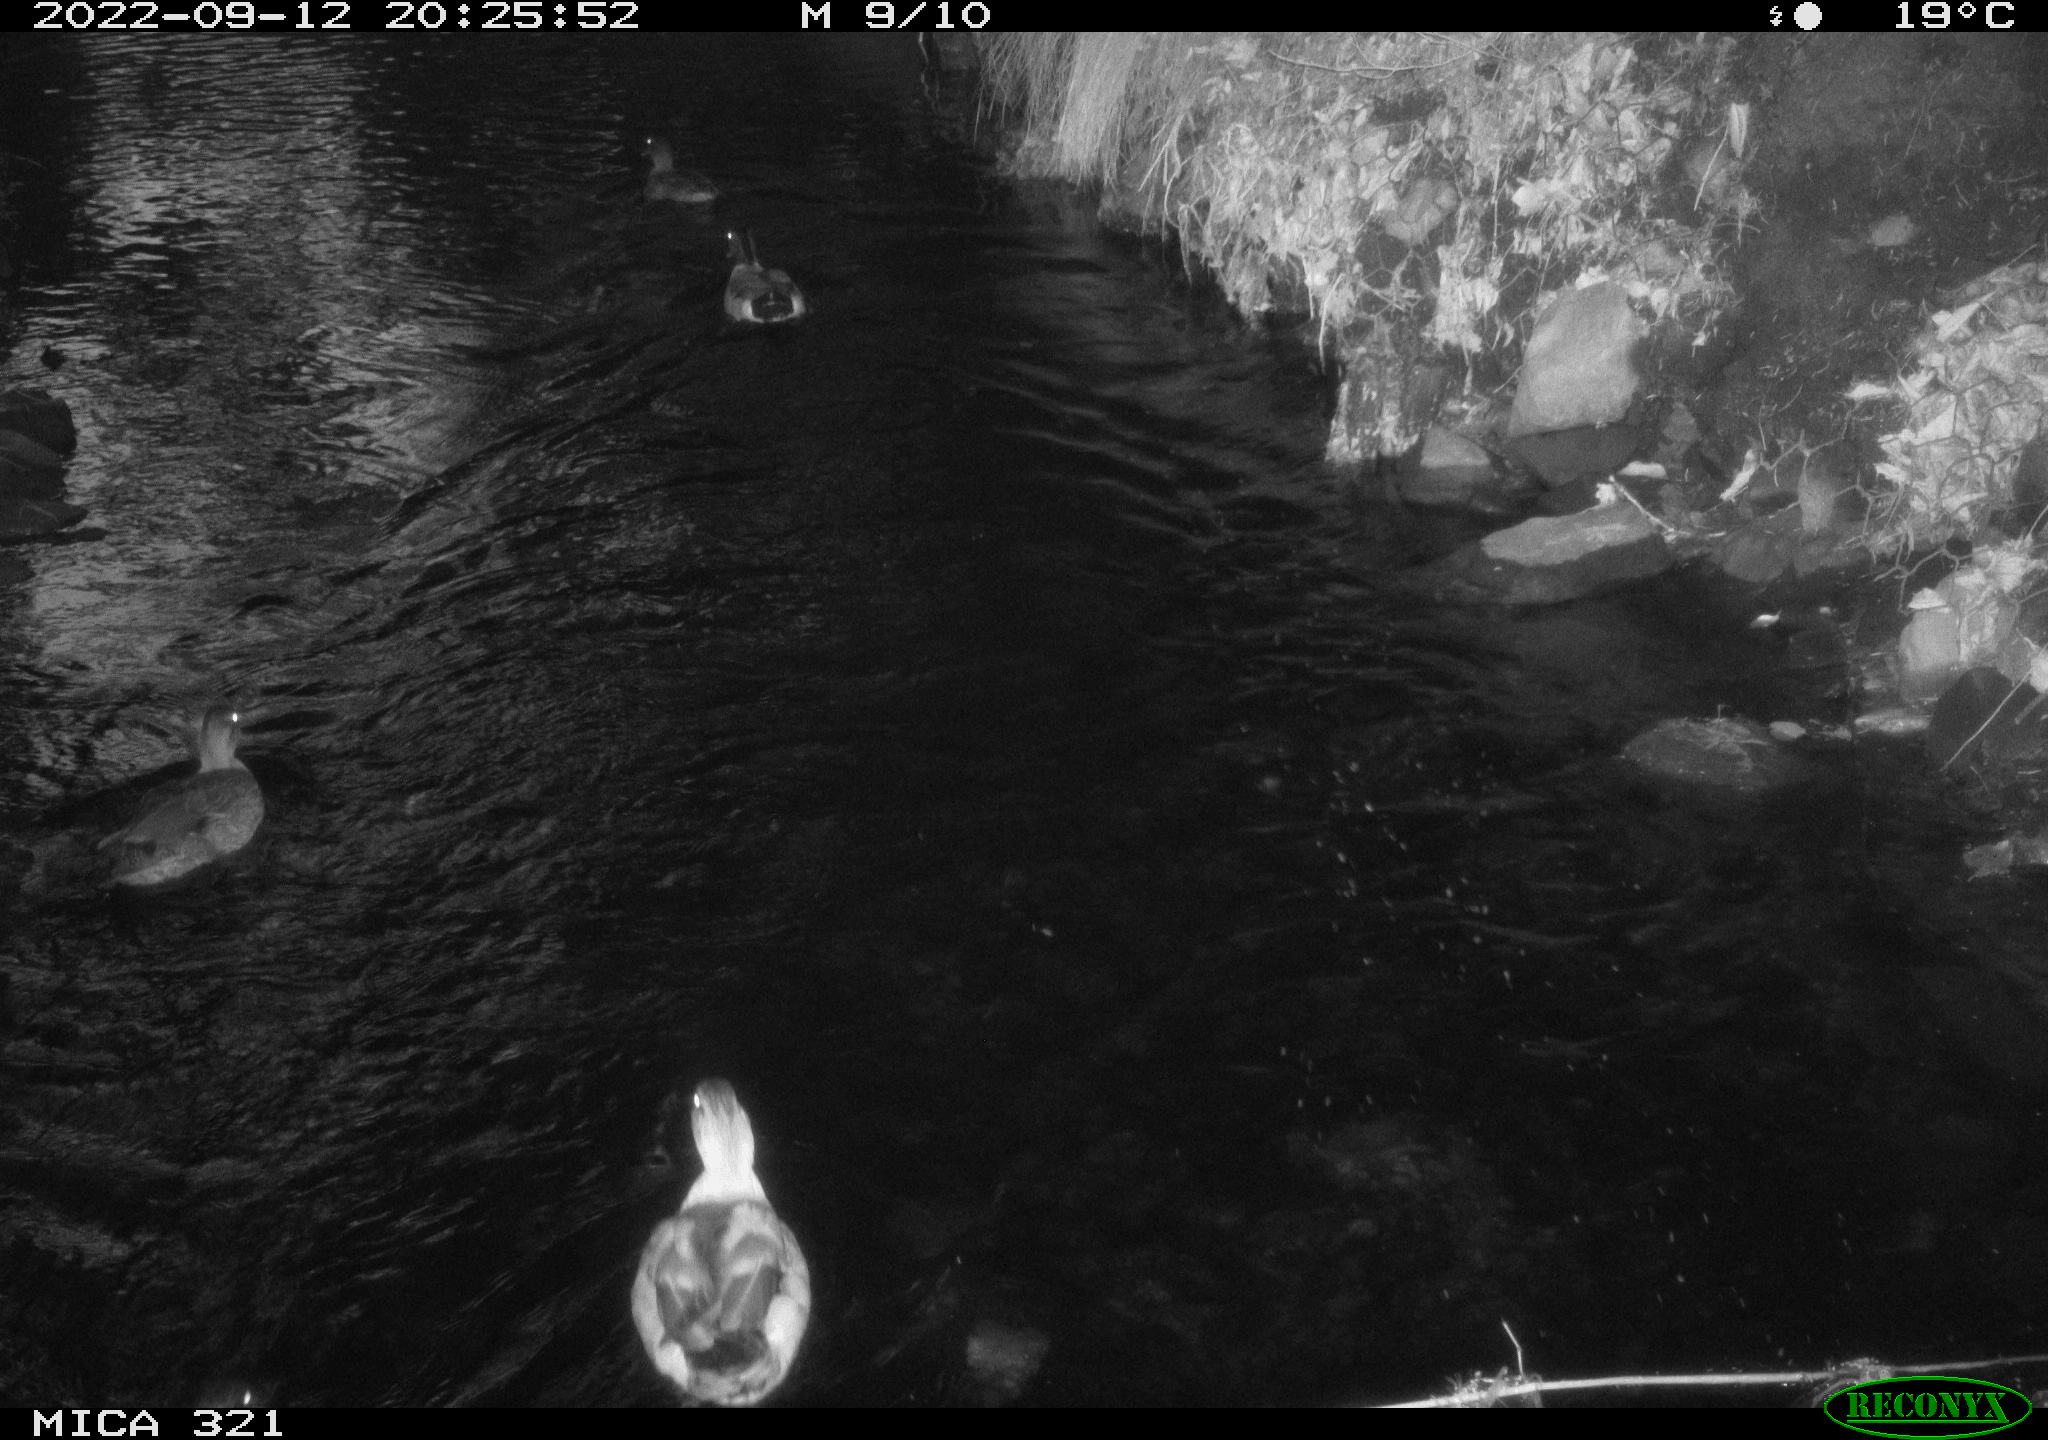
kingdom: Animalia
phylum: Chordata
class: Aves
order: Anseriformes
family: Anatidae
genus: Anas
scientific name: Anas
